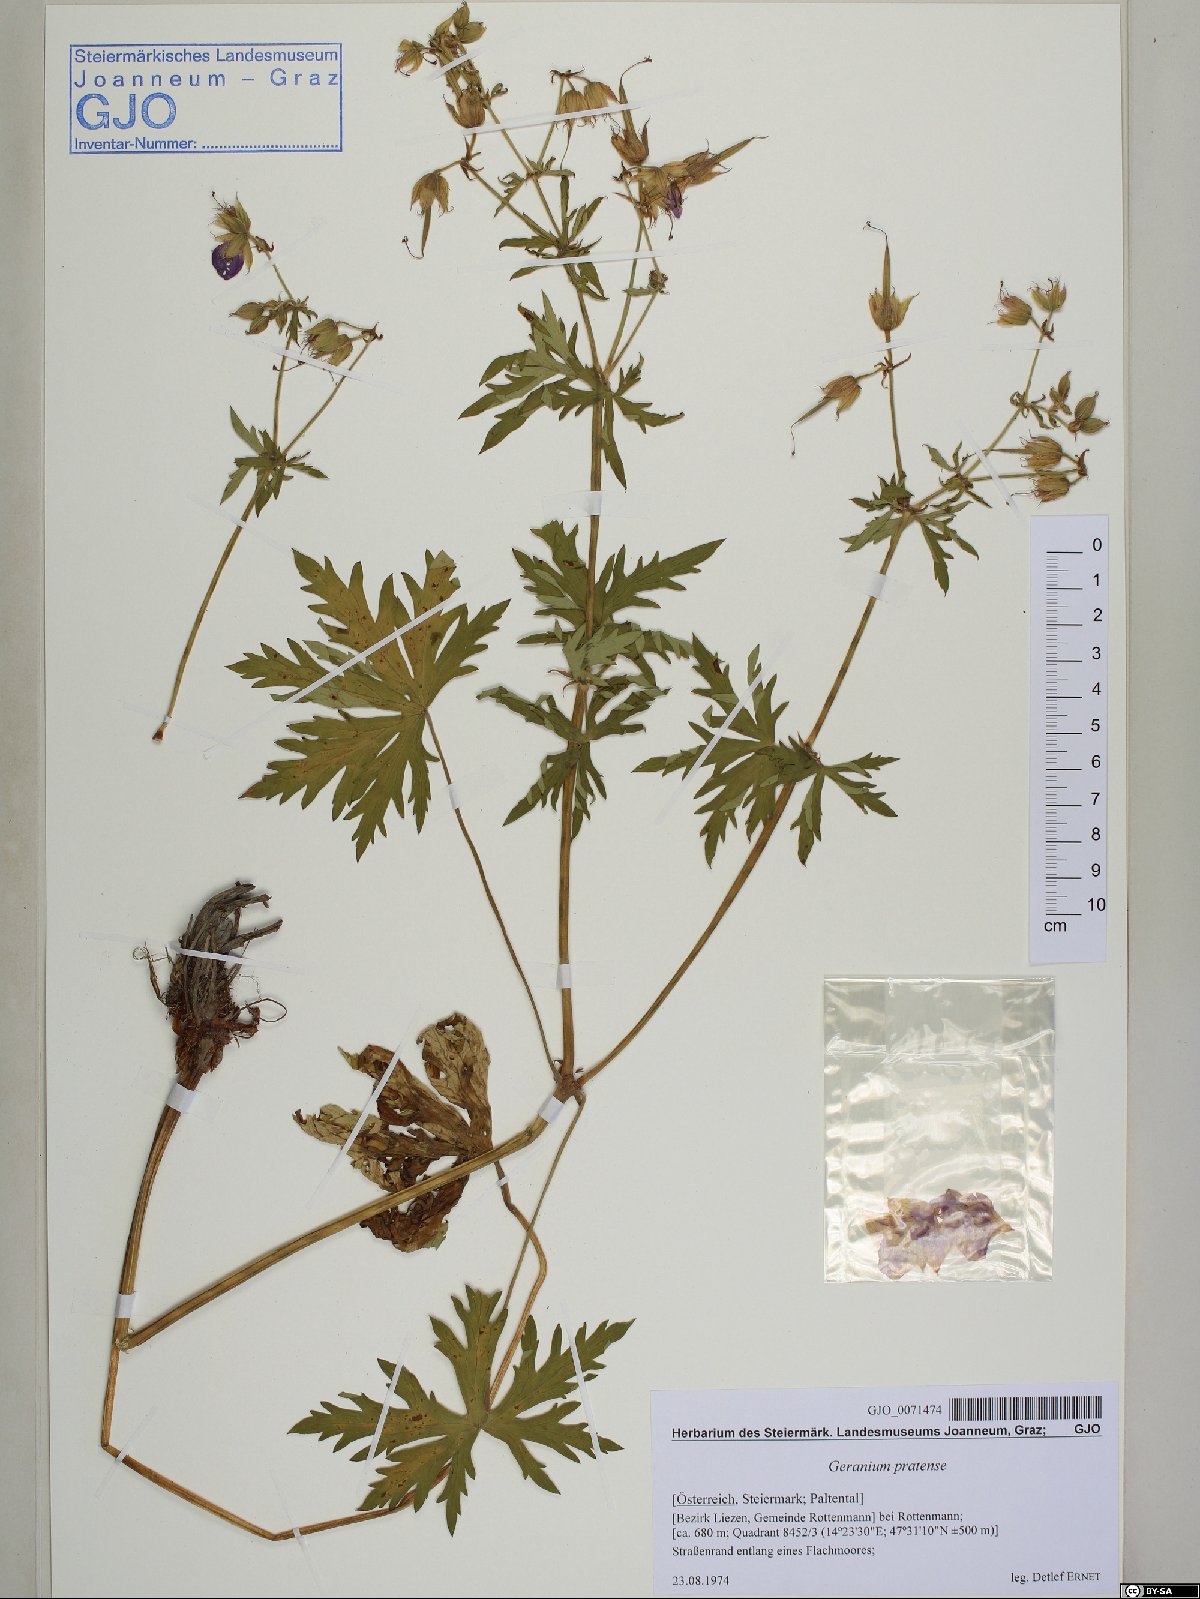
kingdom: Plantae
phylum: Tracheophyta
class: Magnoliopsida
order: Geraniales
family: Geraniaceae
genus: Geranium
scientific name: Geranium pratense
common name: Meadow crane's-bill
